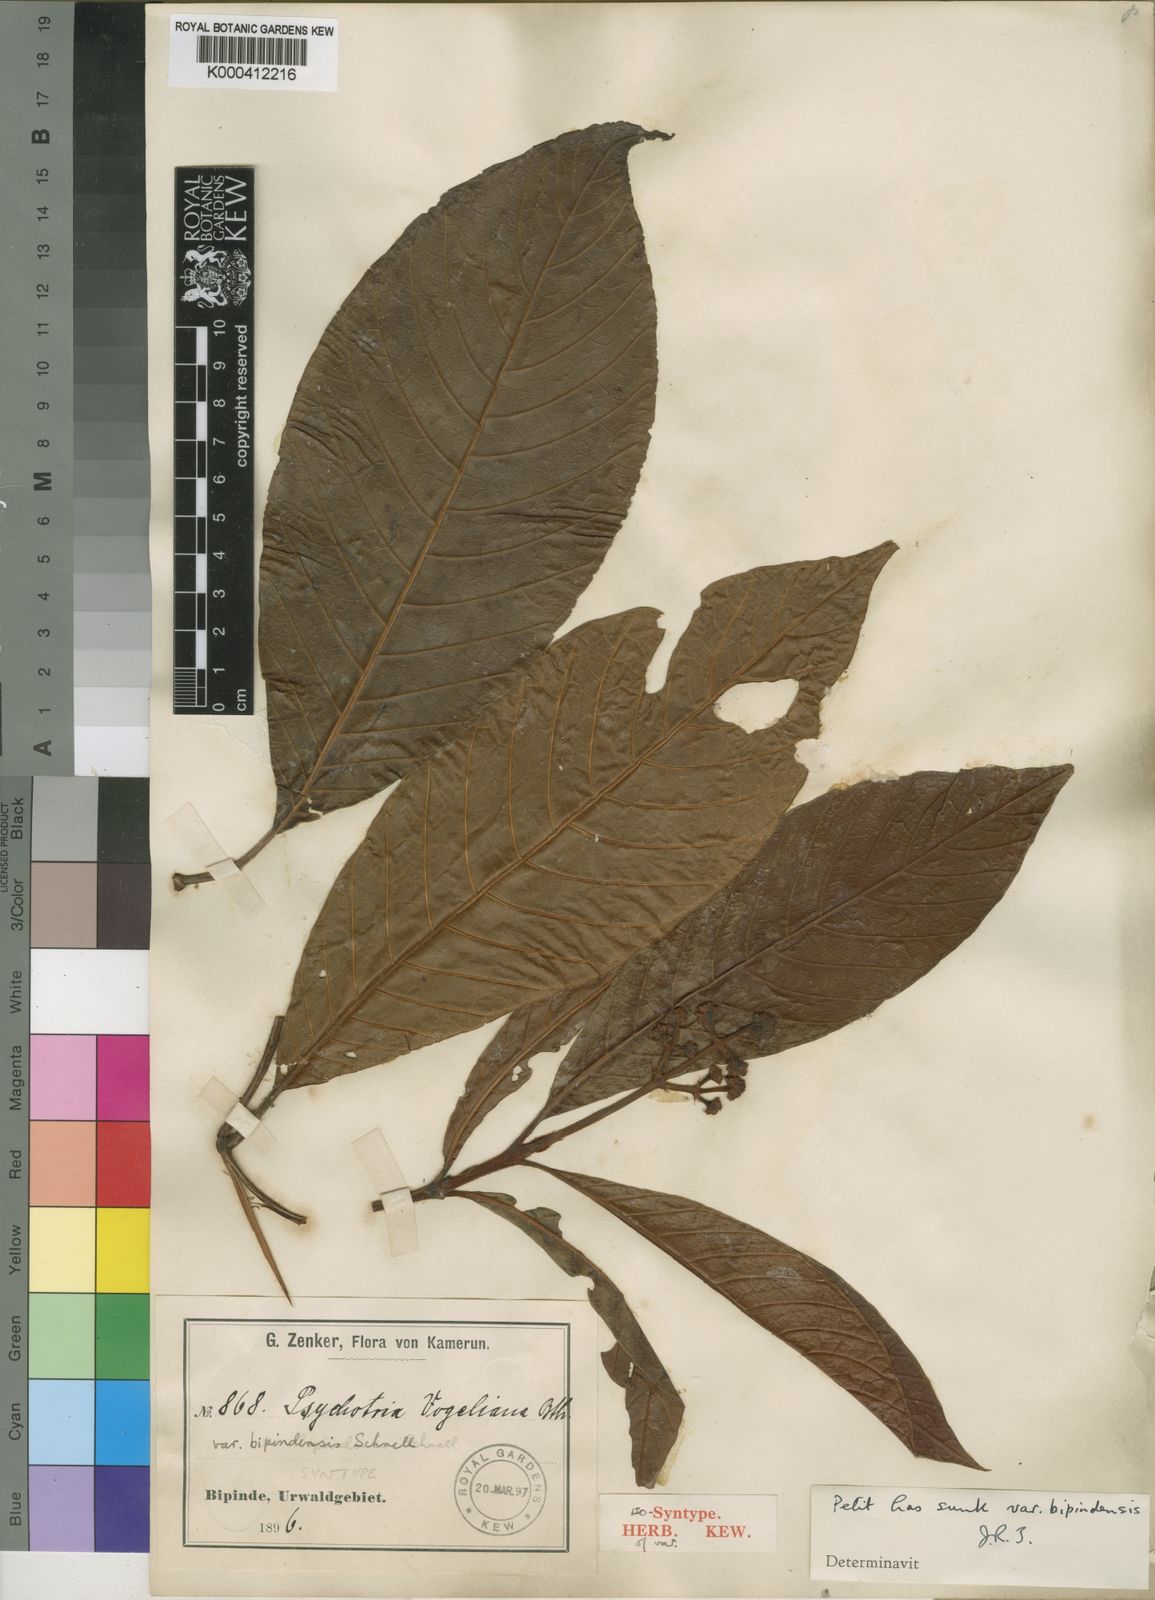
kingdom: Plantae
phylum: Tracheophyta
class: Magnoliopsida
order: Gentianales
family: Rubiaceae
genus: Psychotria
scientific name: Psychotria vogeliana
